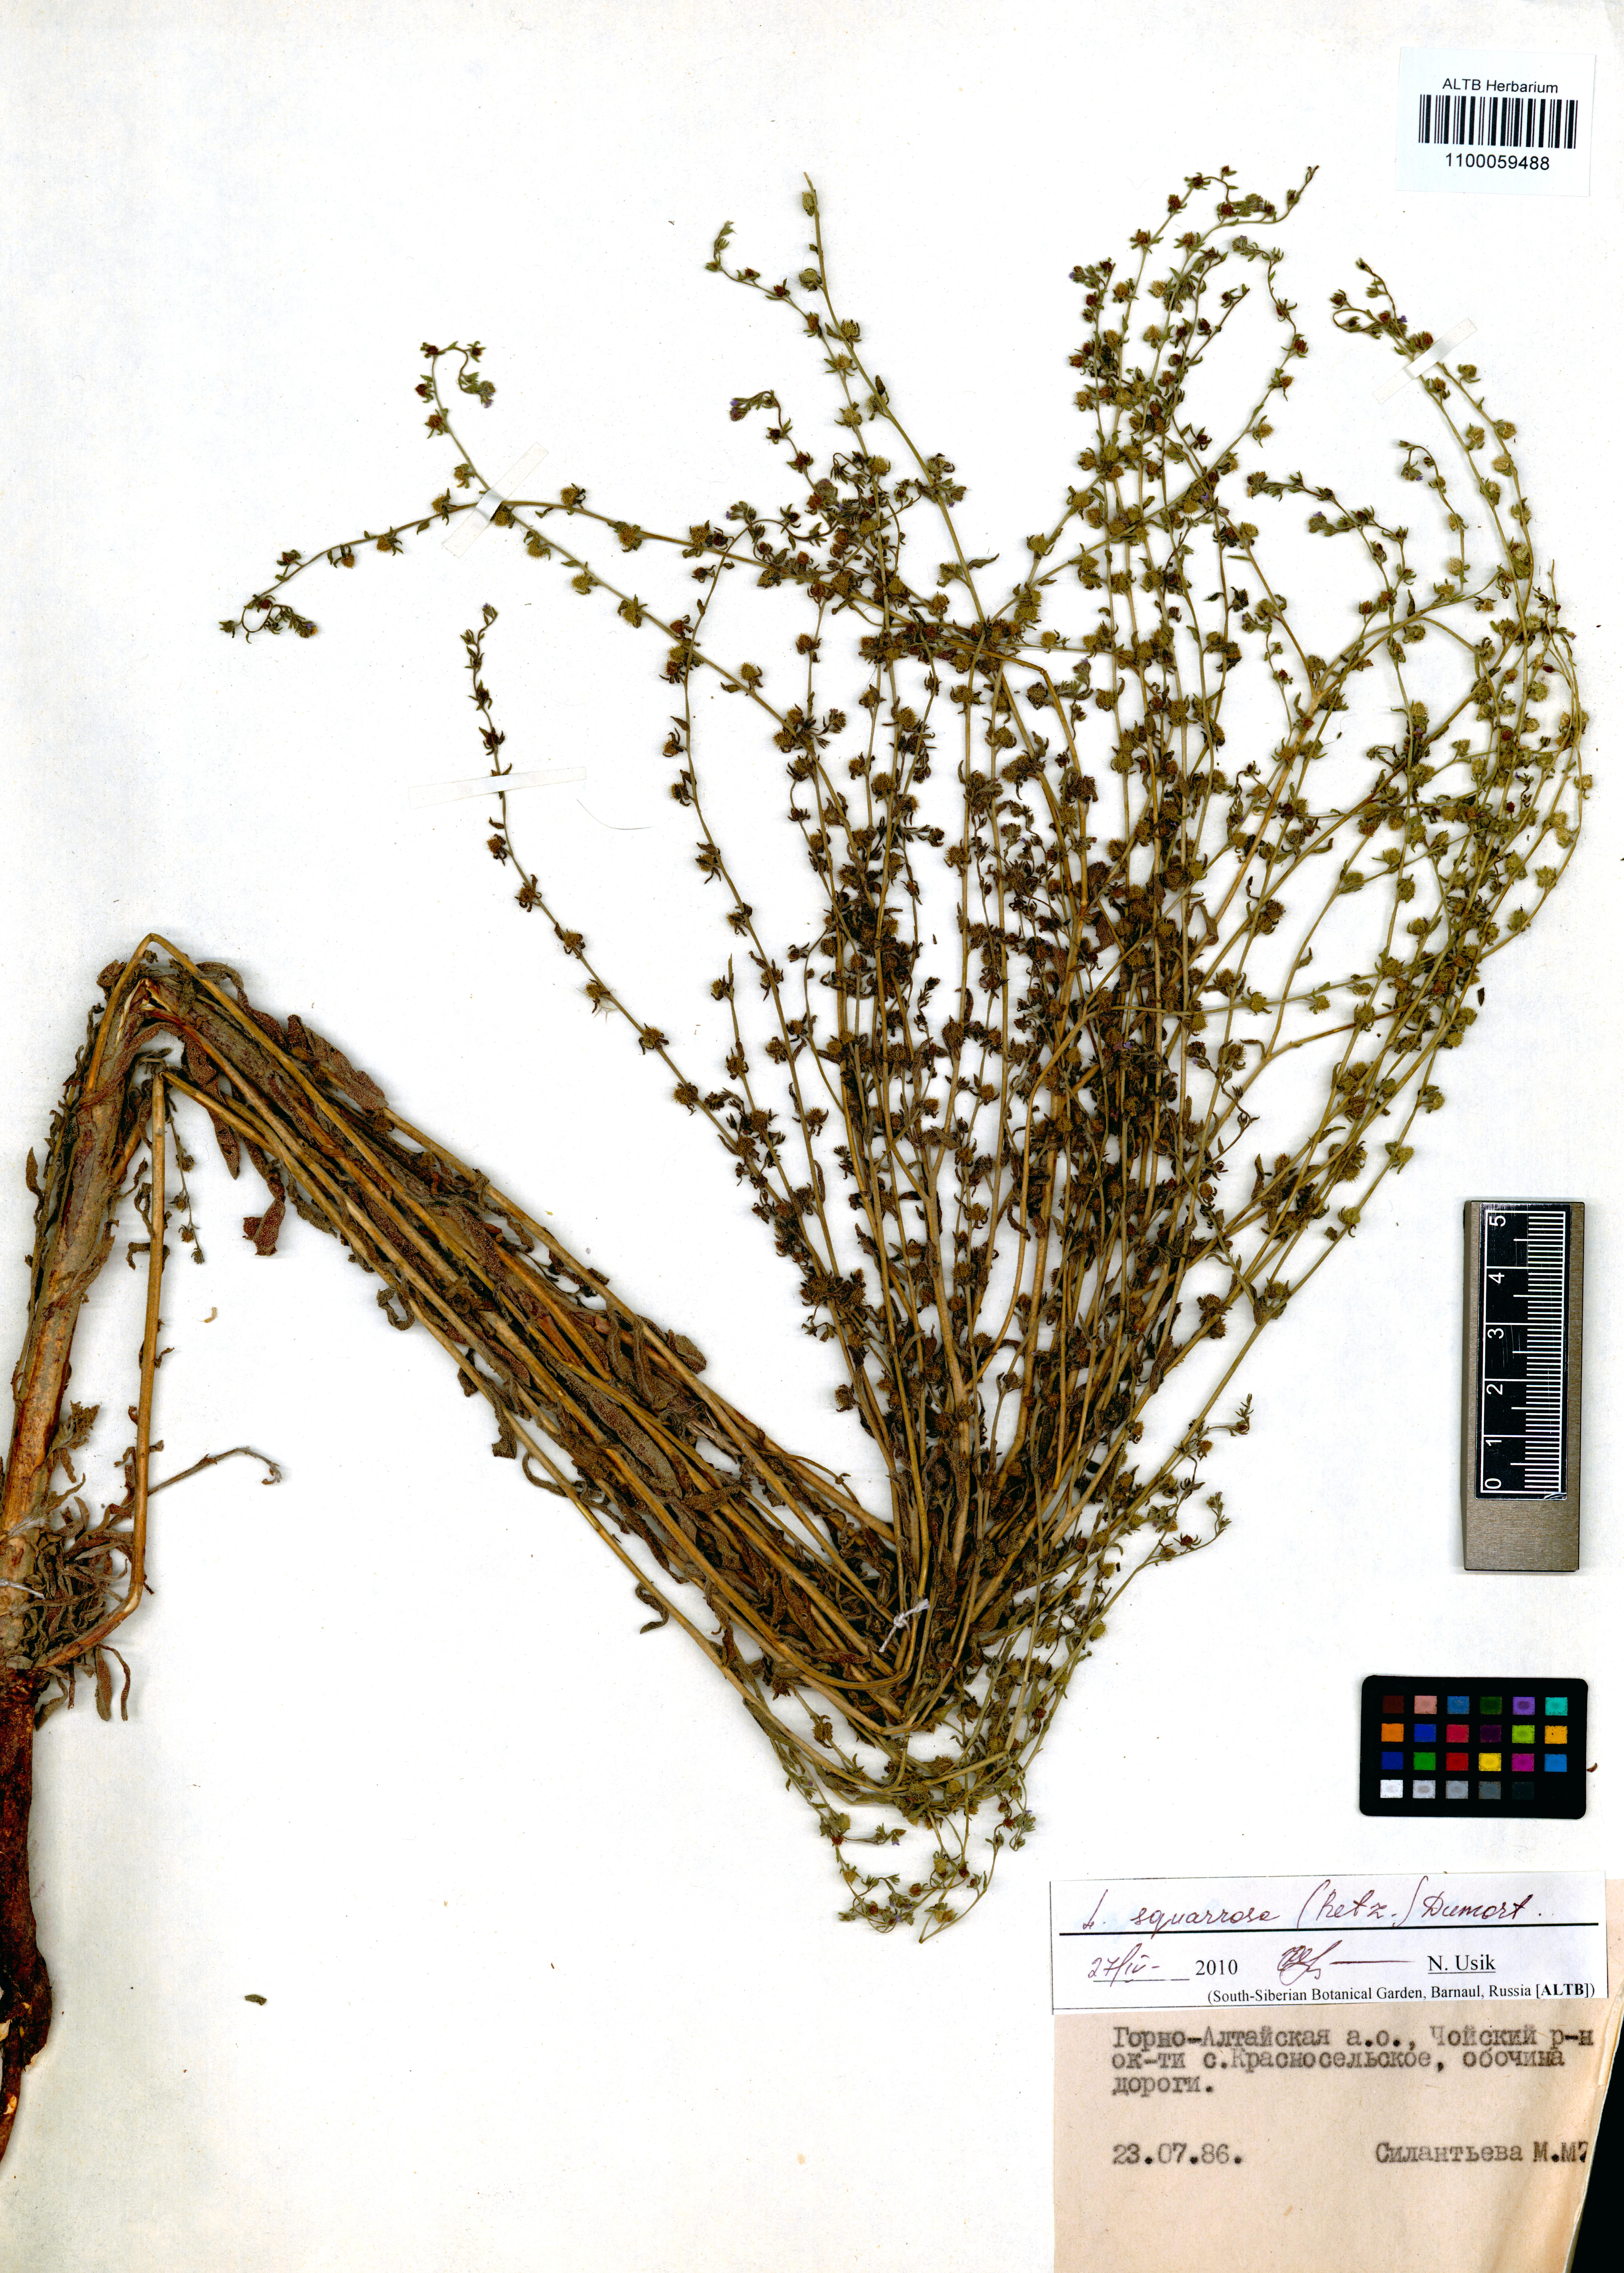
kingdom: Plantae
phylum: Tracheophyta
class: Magnoliopsida
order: Boraginales
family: Boraginaceae
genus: Lappula
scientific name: Lappula squarrosa
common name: European stickseed
